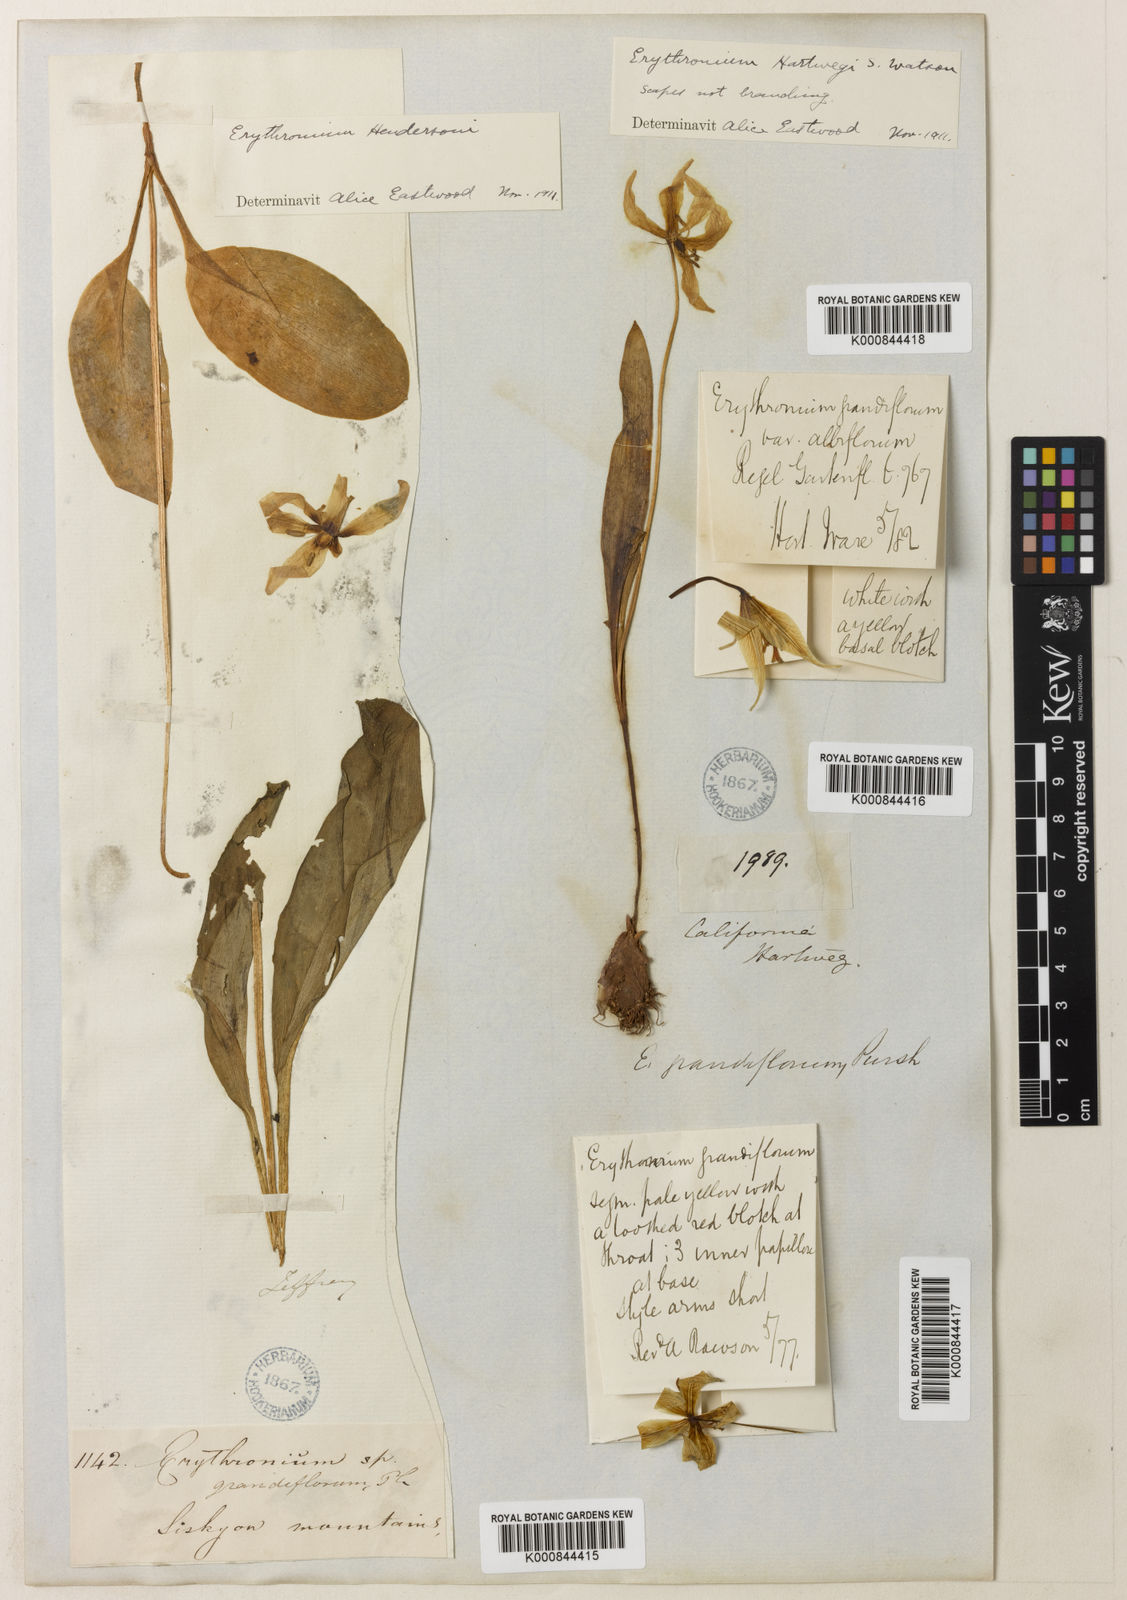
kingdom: Plantae
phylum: Tracheophyta
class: Liliopsida
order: Liliales
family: Liliaceae
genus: Erythronium
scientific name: Erythronium multiscapideum
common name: Sierra foothills fawn-lily
